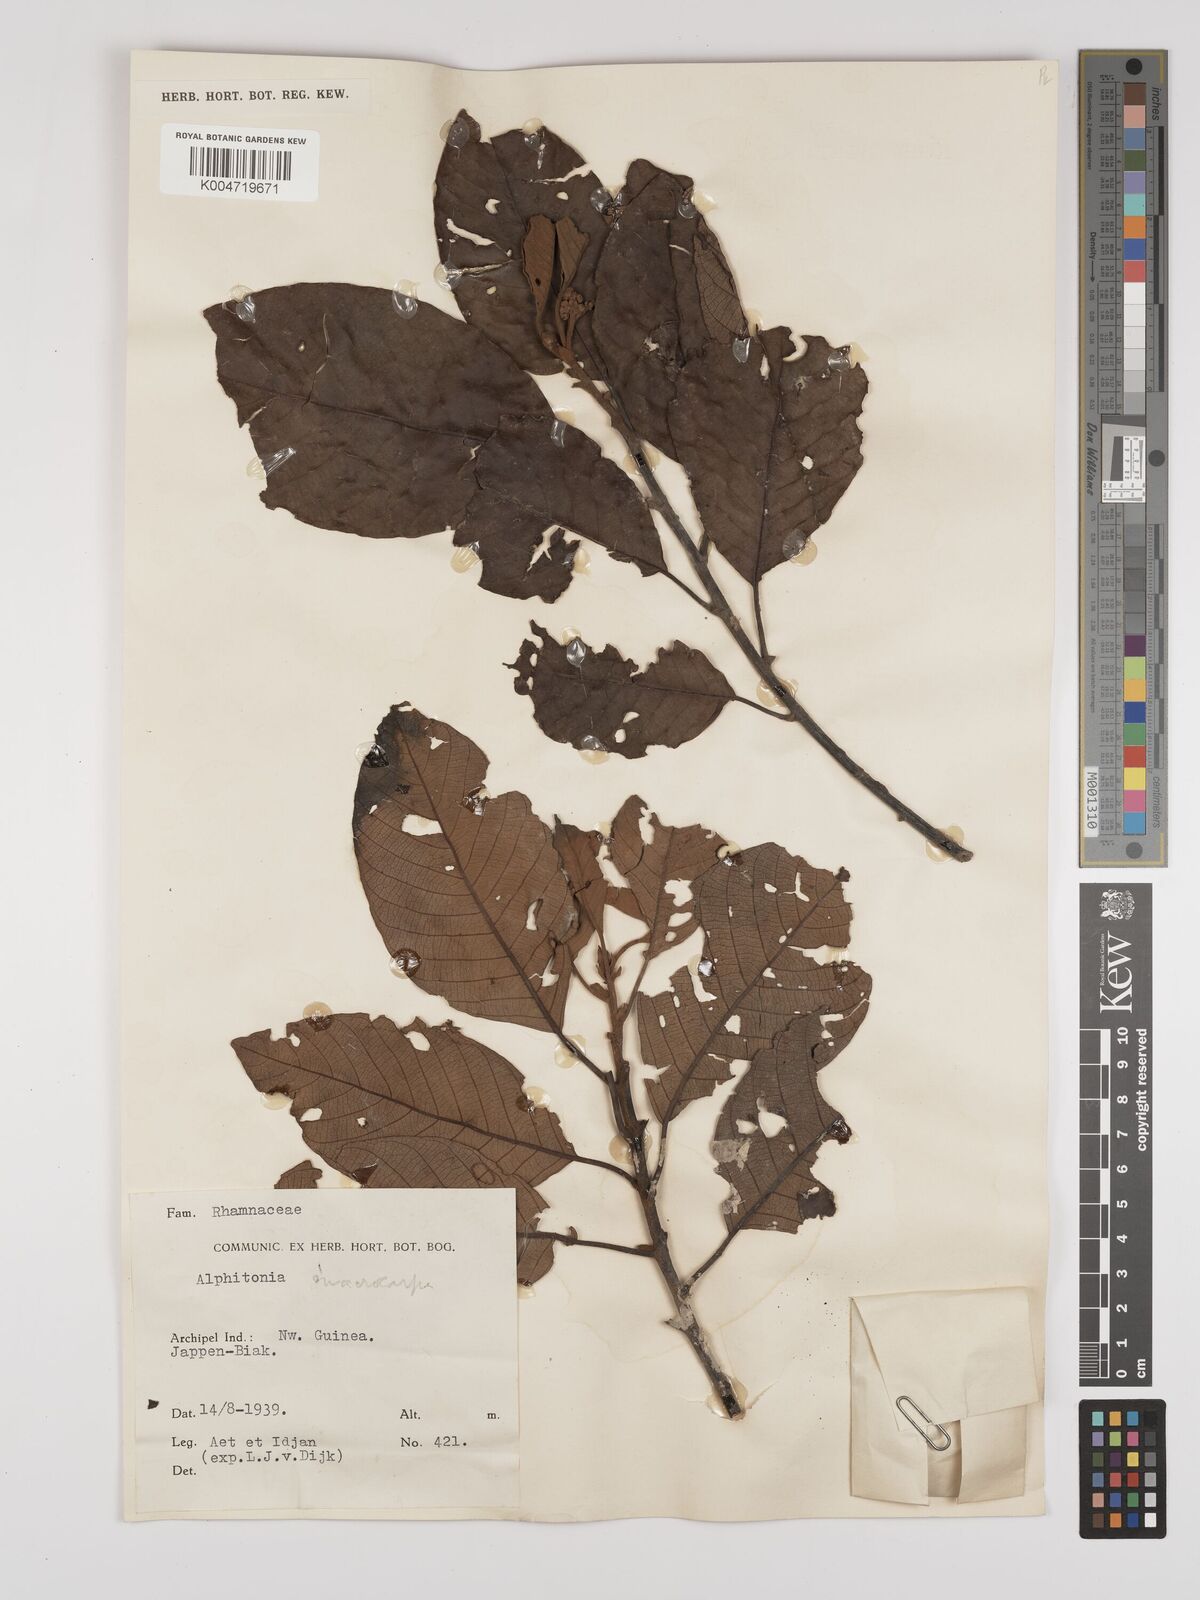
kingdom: Plantae
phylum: Tracheophyta
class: Magnoliopsida
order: Rosales
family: Rhamnaceae
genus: Alphitonia
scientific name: Alphitonia
